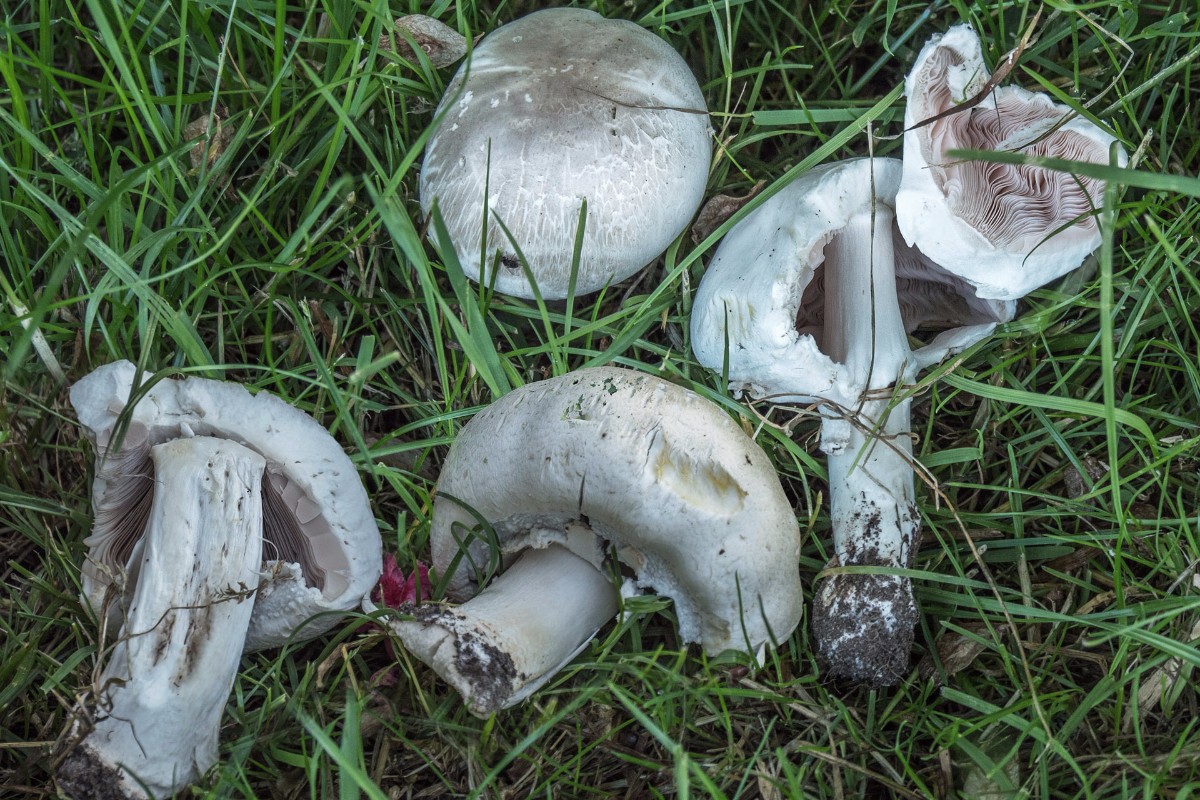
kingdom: Fungi
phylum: Basidiomycota
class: Agaricomycetes
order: Agaricales
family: Agaricaceae
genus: Agaricus
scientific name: Agaricus xanthodermus
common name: karbol-champignon
